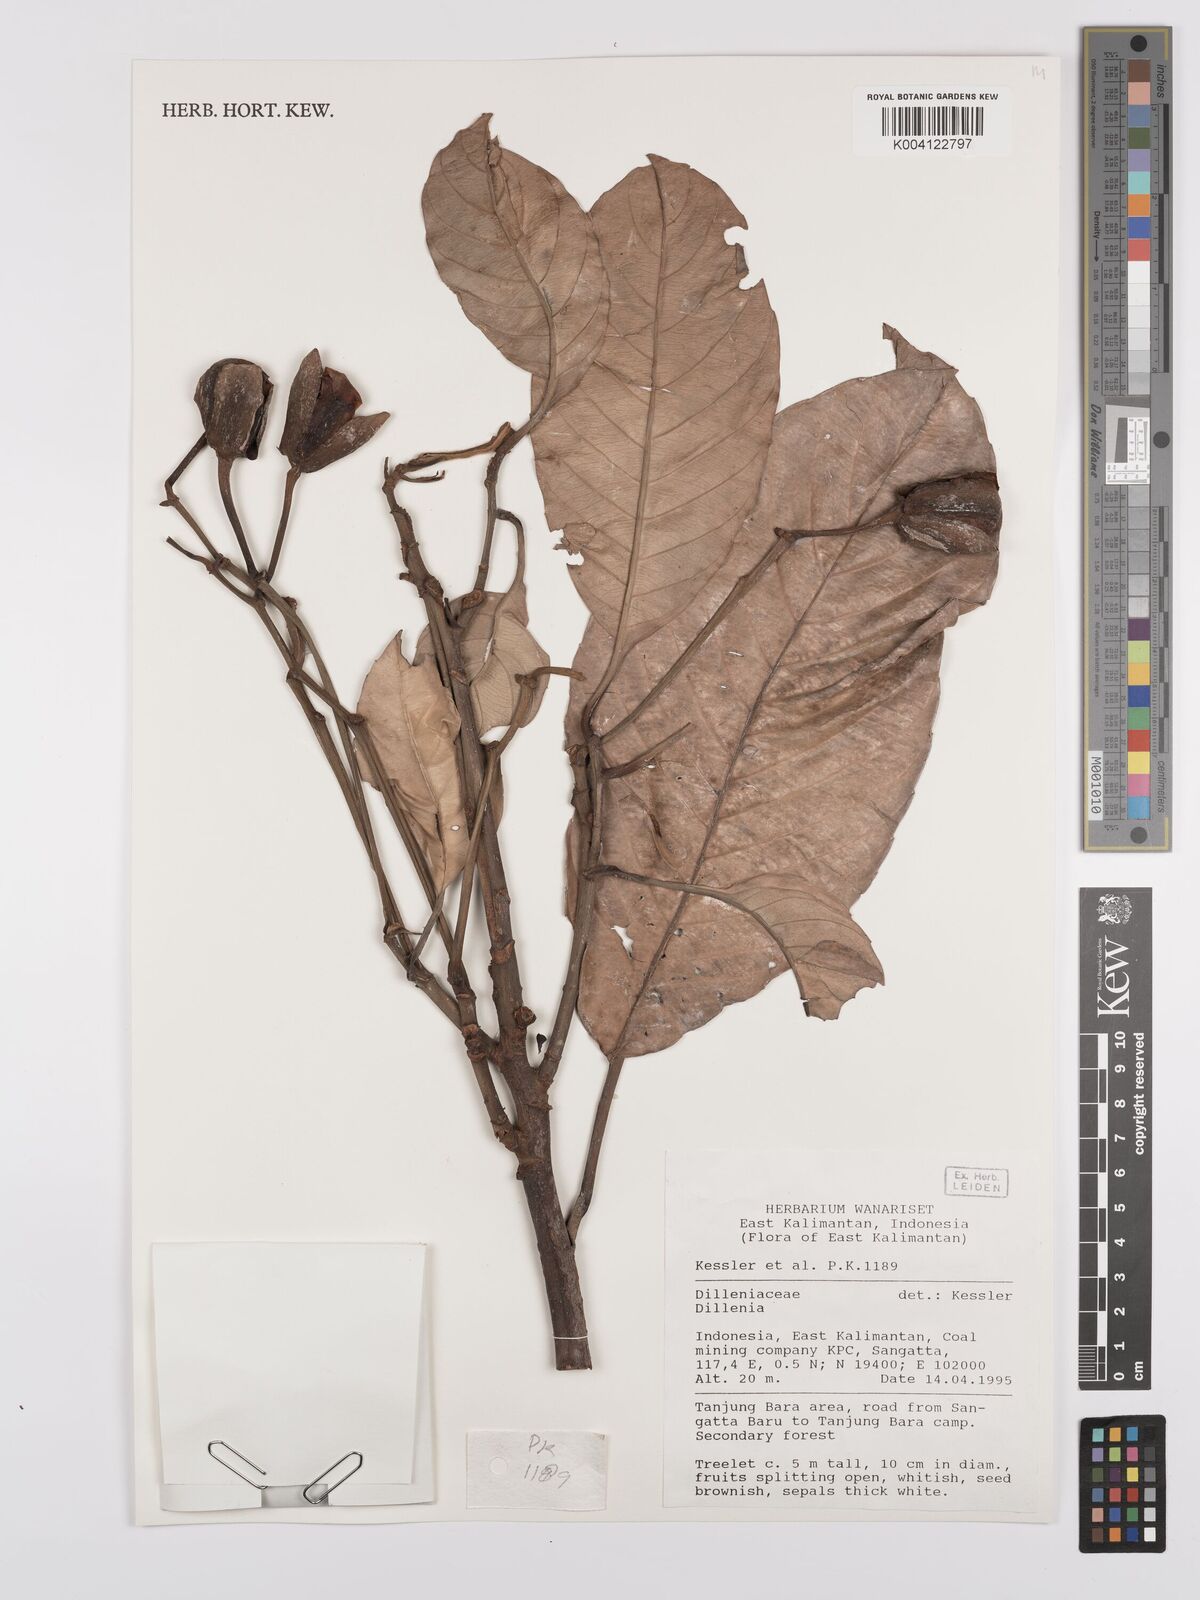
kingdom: Plantae
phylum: Tracheophyta
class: Magnoliopsida
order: Dilleniales
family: Dilleniaceae
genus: Dillenia
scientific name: Dillenia
